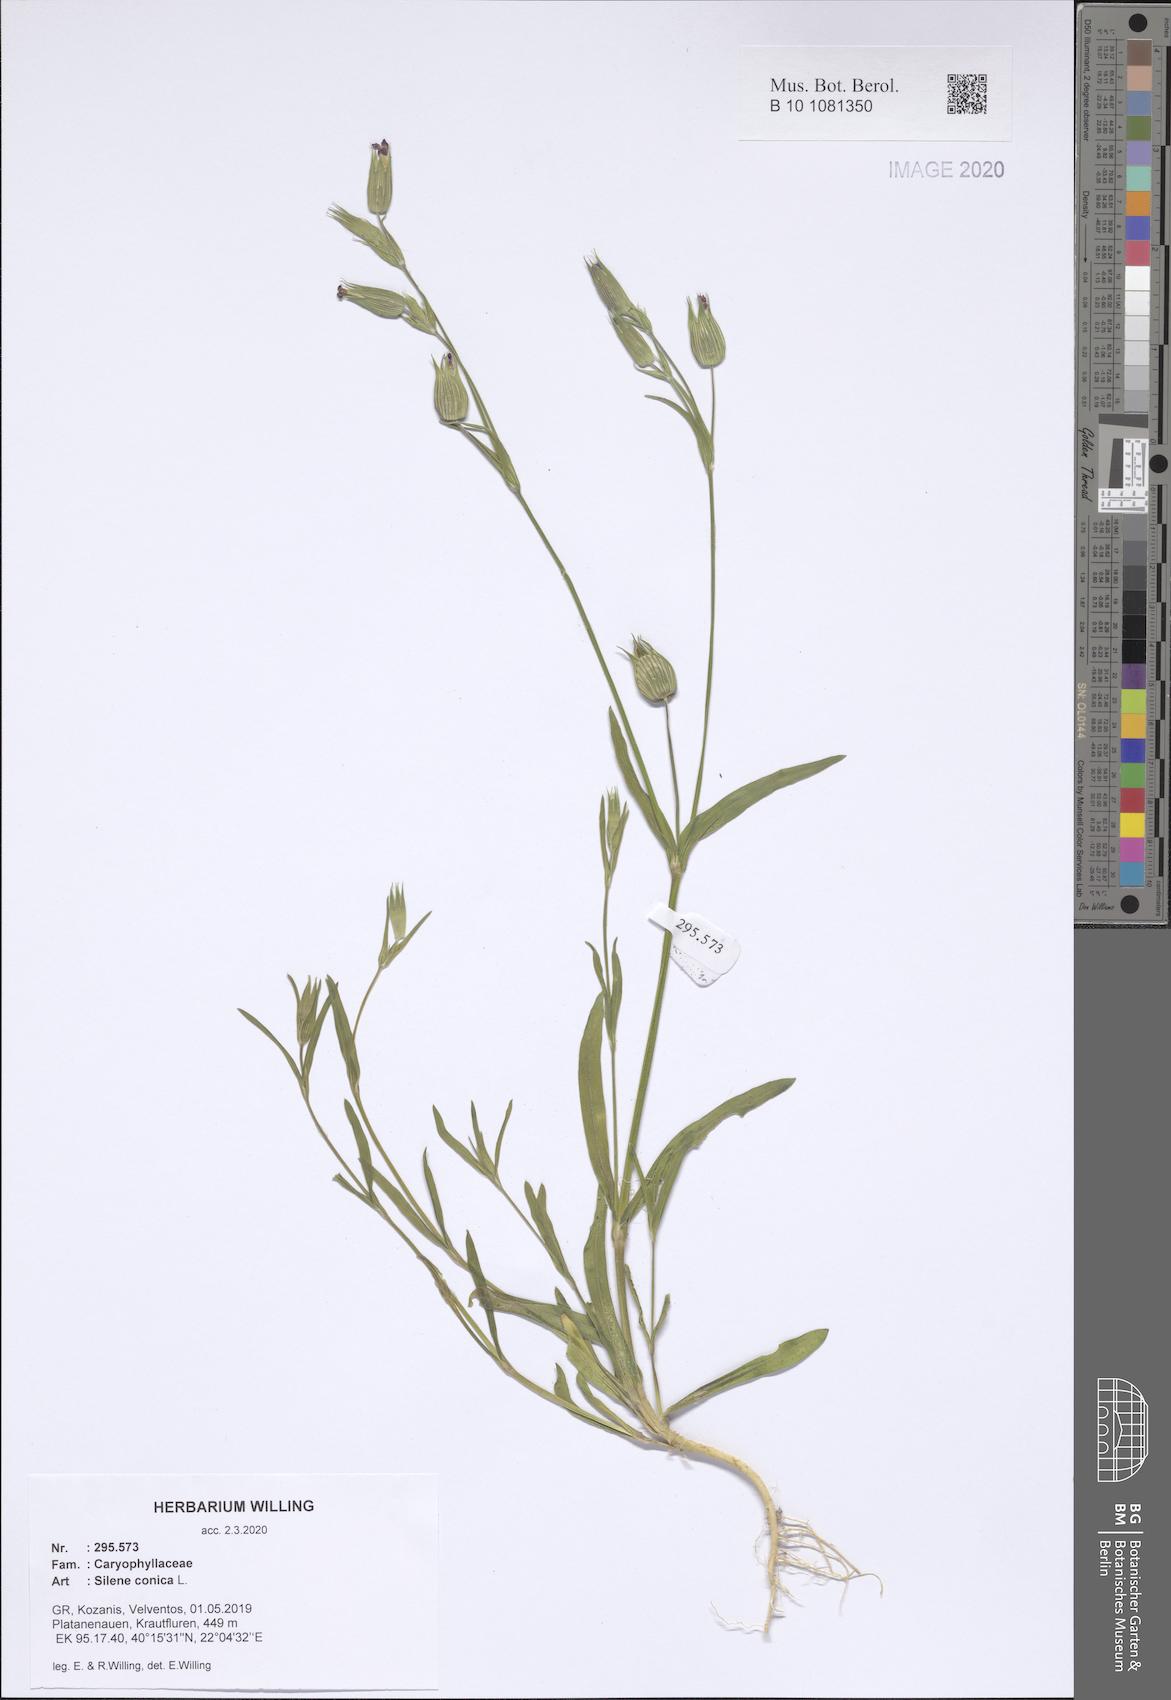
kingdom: Plantae
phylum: Tracheophyta
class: Magnoliopsida
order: Caryophyllales
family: Caryophyllaceae
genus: Silene
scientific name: Silene conica
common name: Sand catchfly
